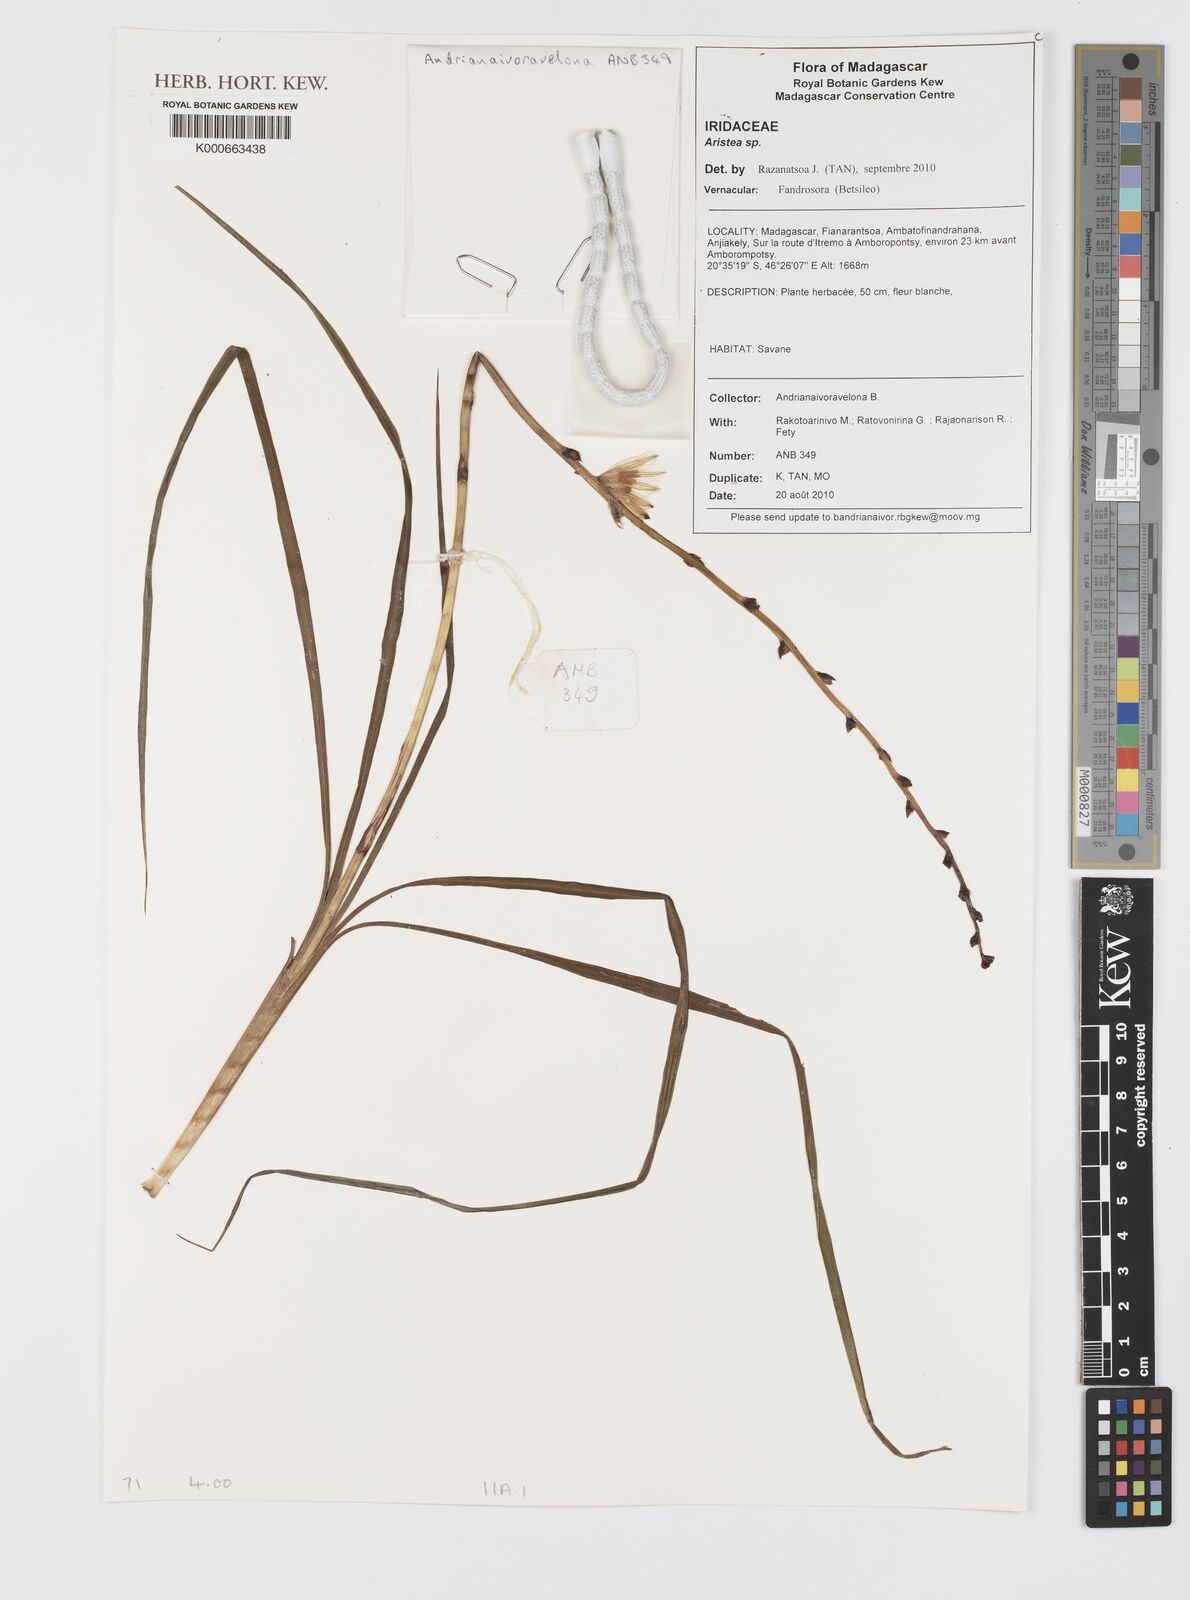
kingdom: Plantae
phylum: Tracheophyta
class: Liliopsida
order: Asparagales
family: Iridaceae
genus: Aristea
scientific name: Aristea
